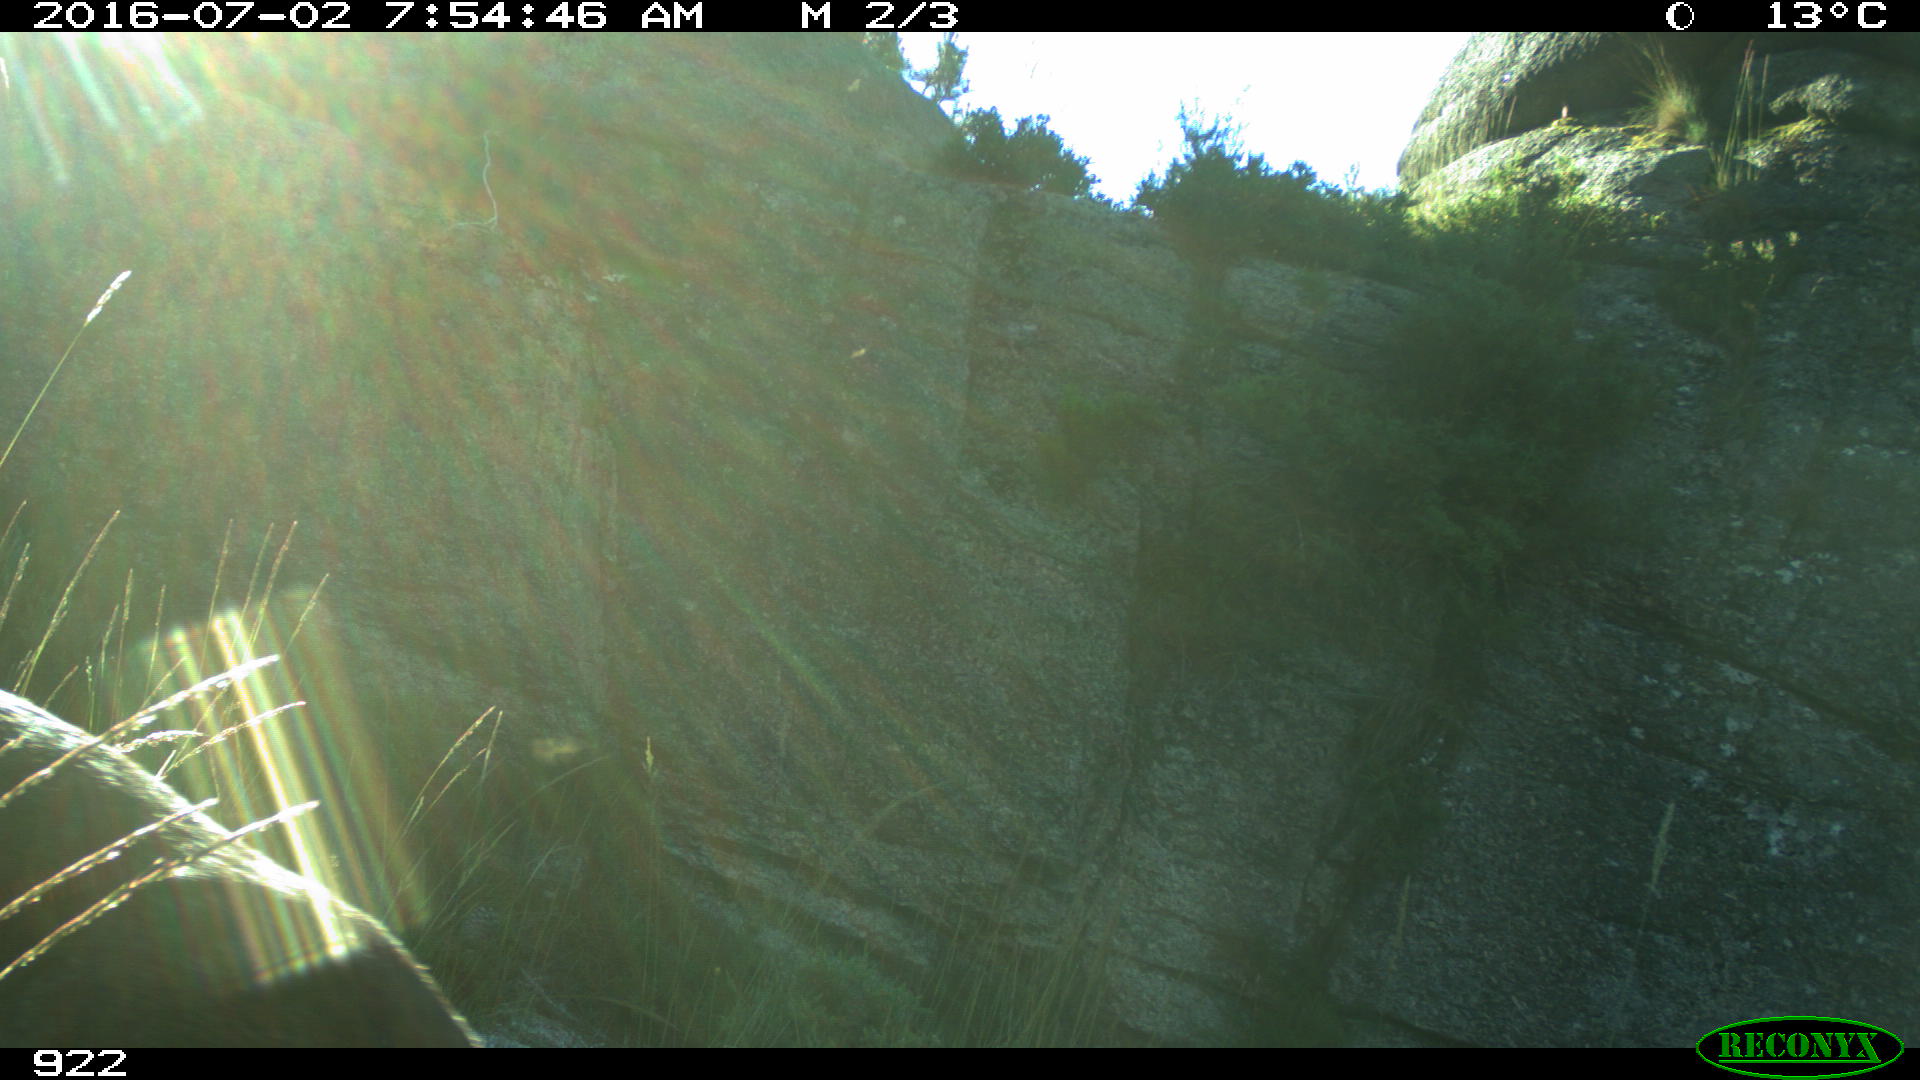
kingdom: Animalia
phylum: Chordata
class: Mammalia
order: Artiodactyla
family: Cervidae
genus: Capreolus
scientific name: Capreolus capreolus
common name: Western roe deer
